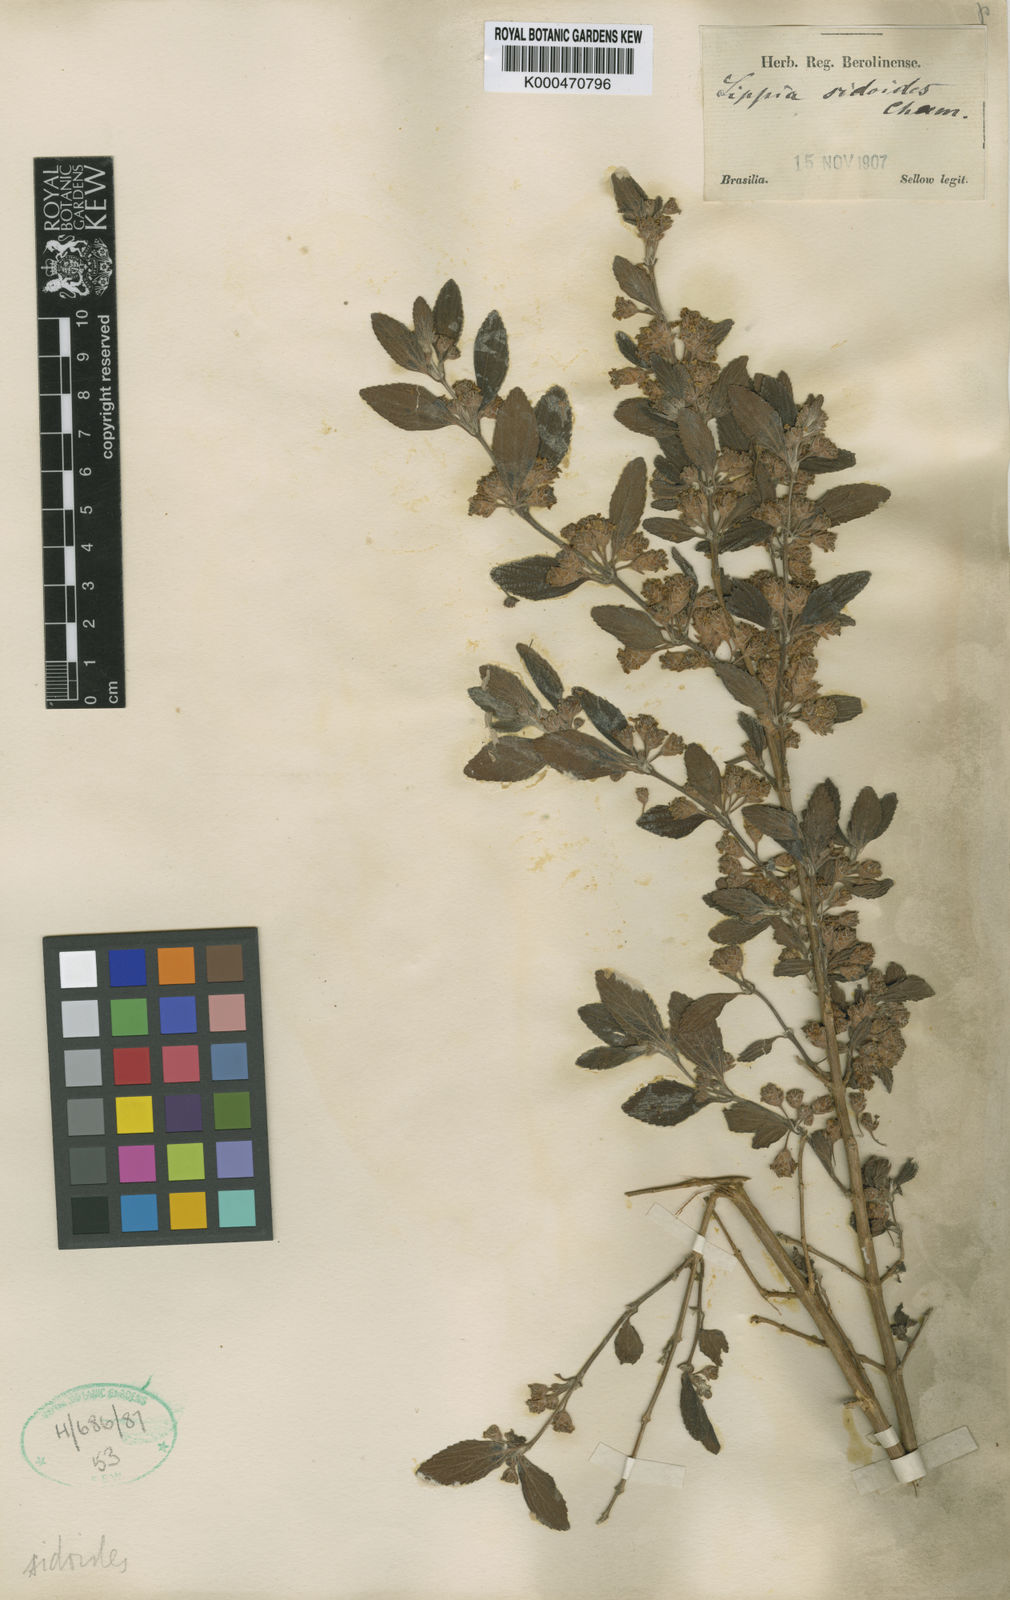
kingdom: Plantae
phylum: Tracheophyta
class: Magnoliopsida
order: Lamiales
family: Verbenaceae
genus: Lippia
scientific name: Lippia origanoides
